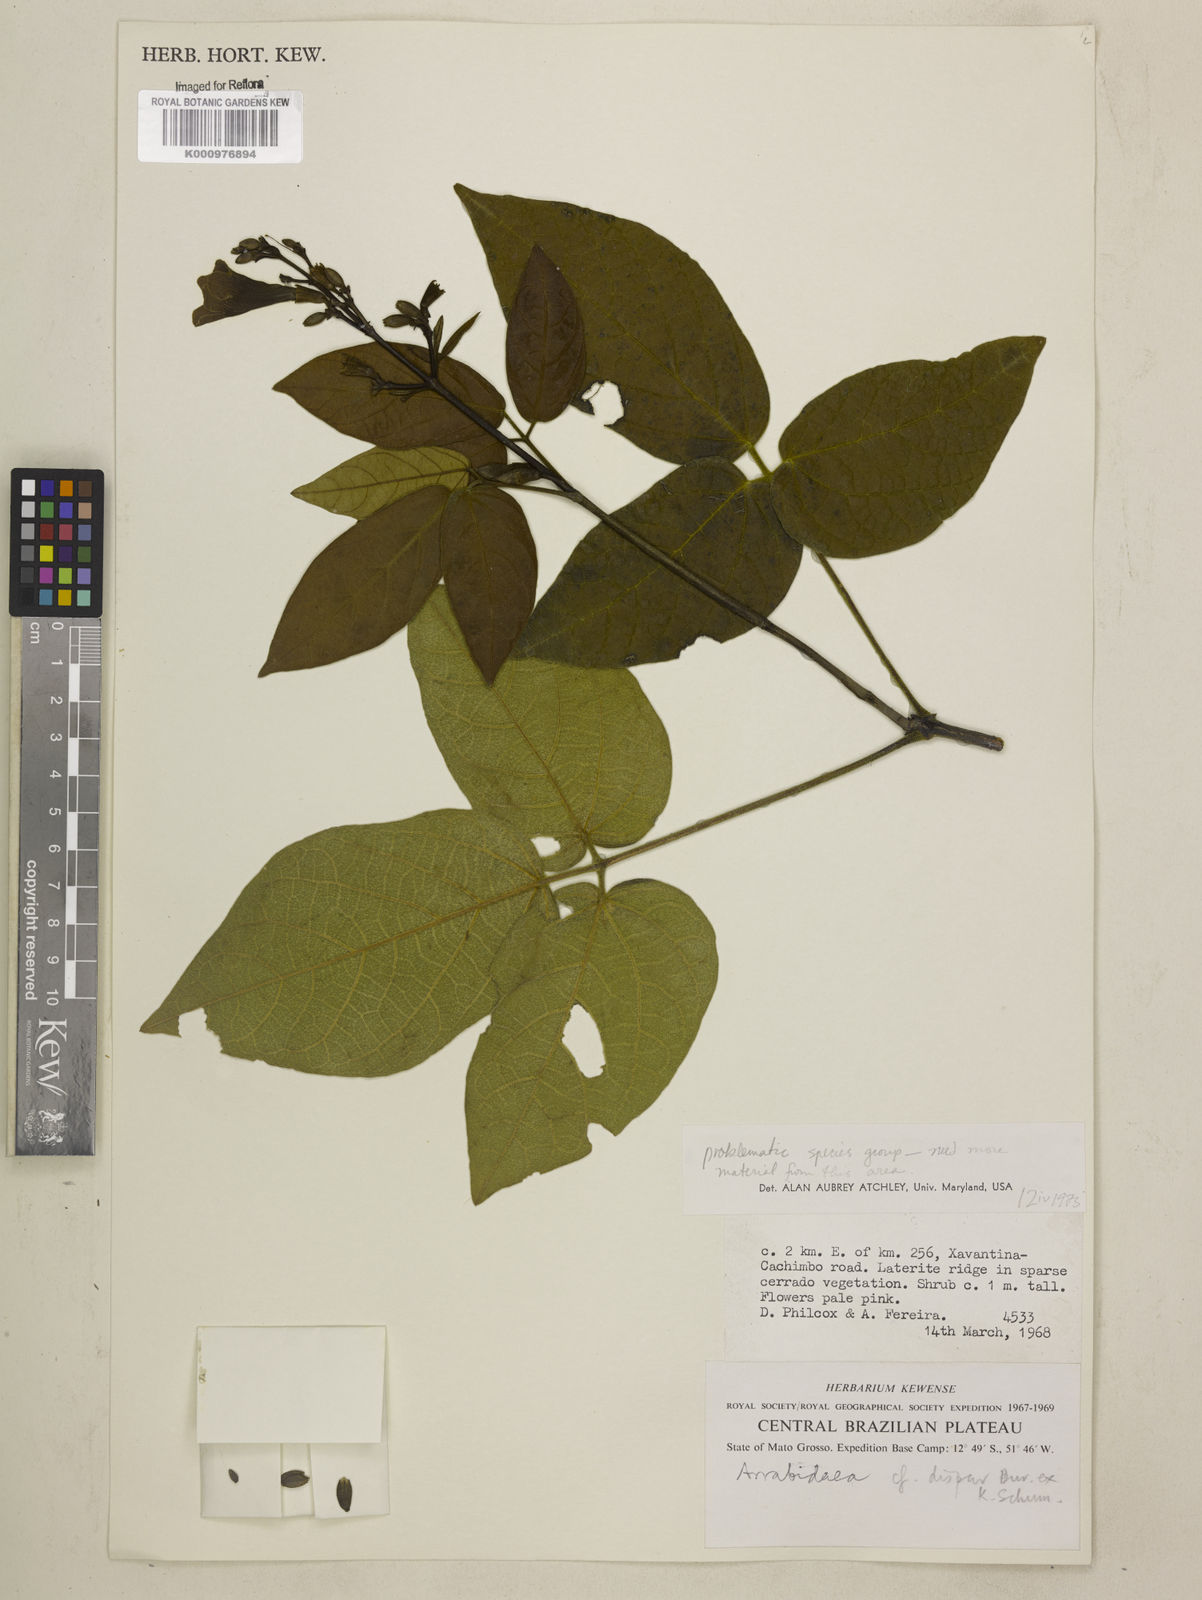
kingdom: Plantae
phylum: Tracheophyta
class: Magnoliopsida
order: Lamiales
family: Bignoniaceae
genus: Fridericia
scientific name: Fridericia dispar
